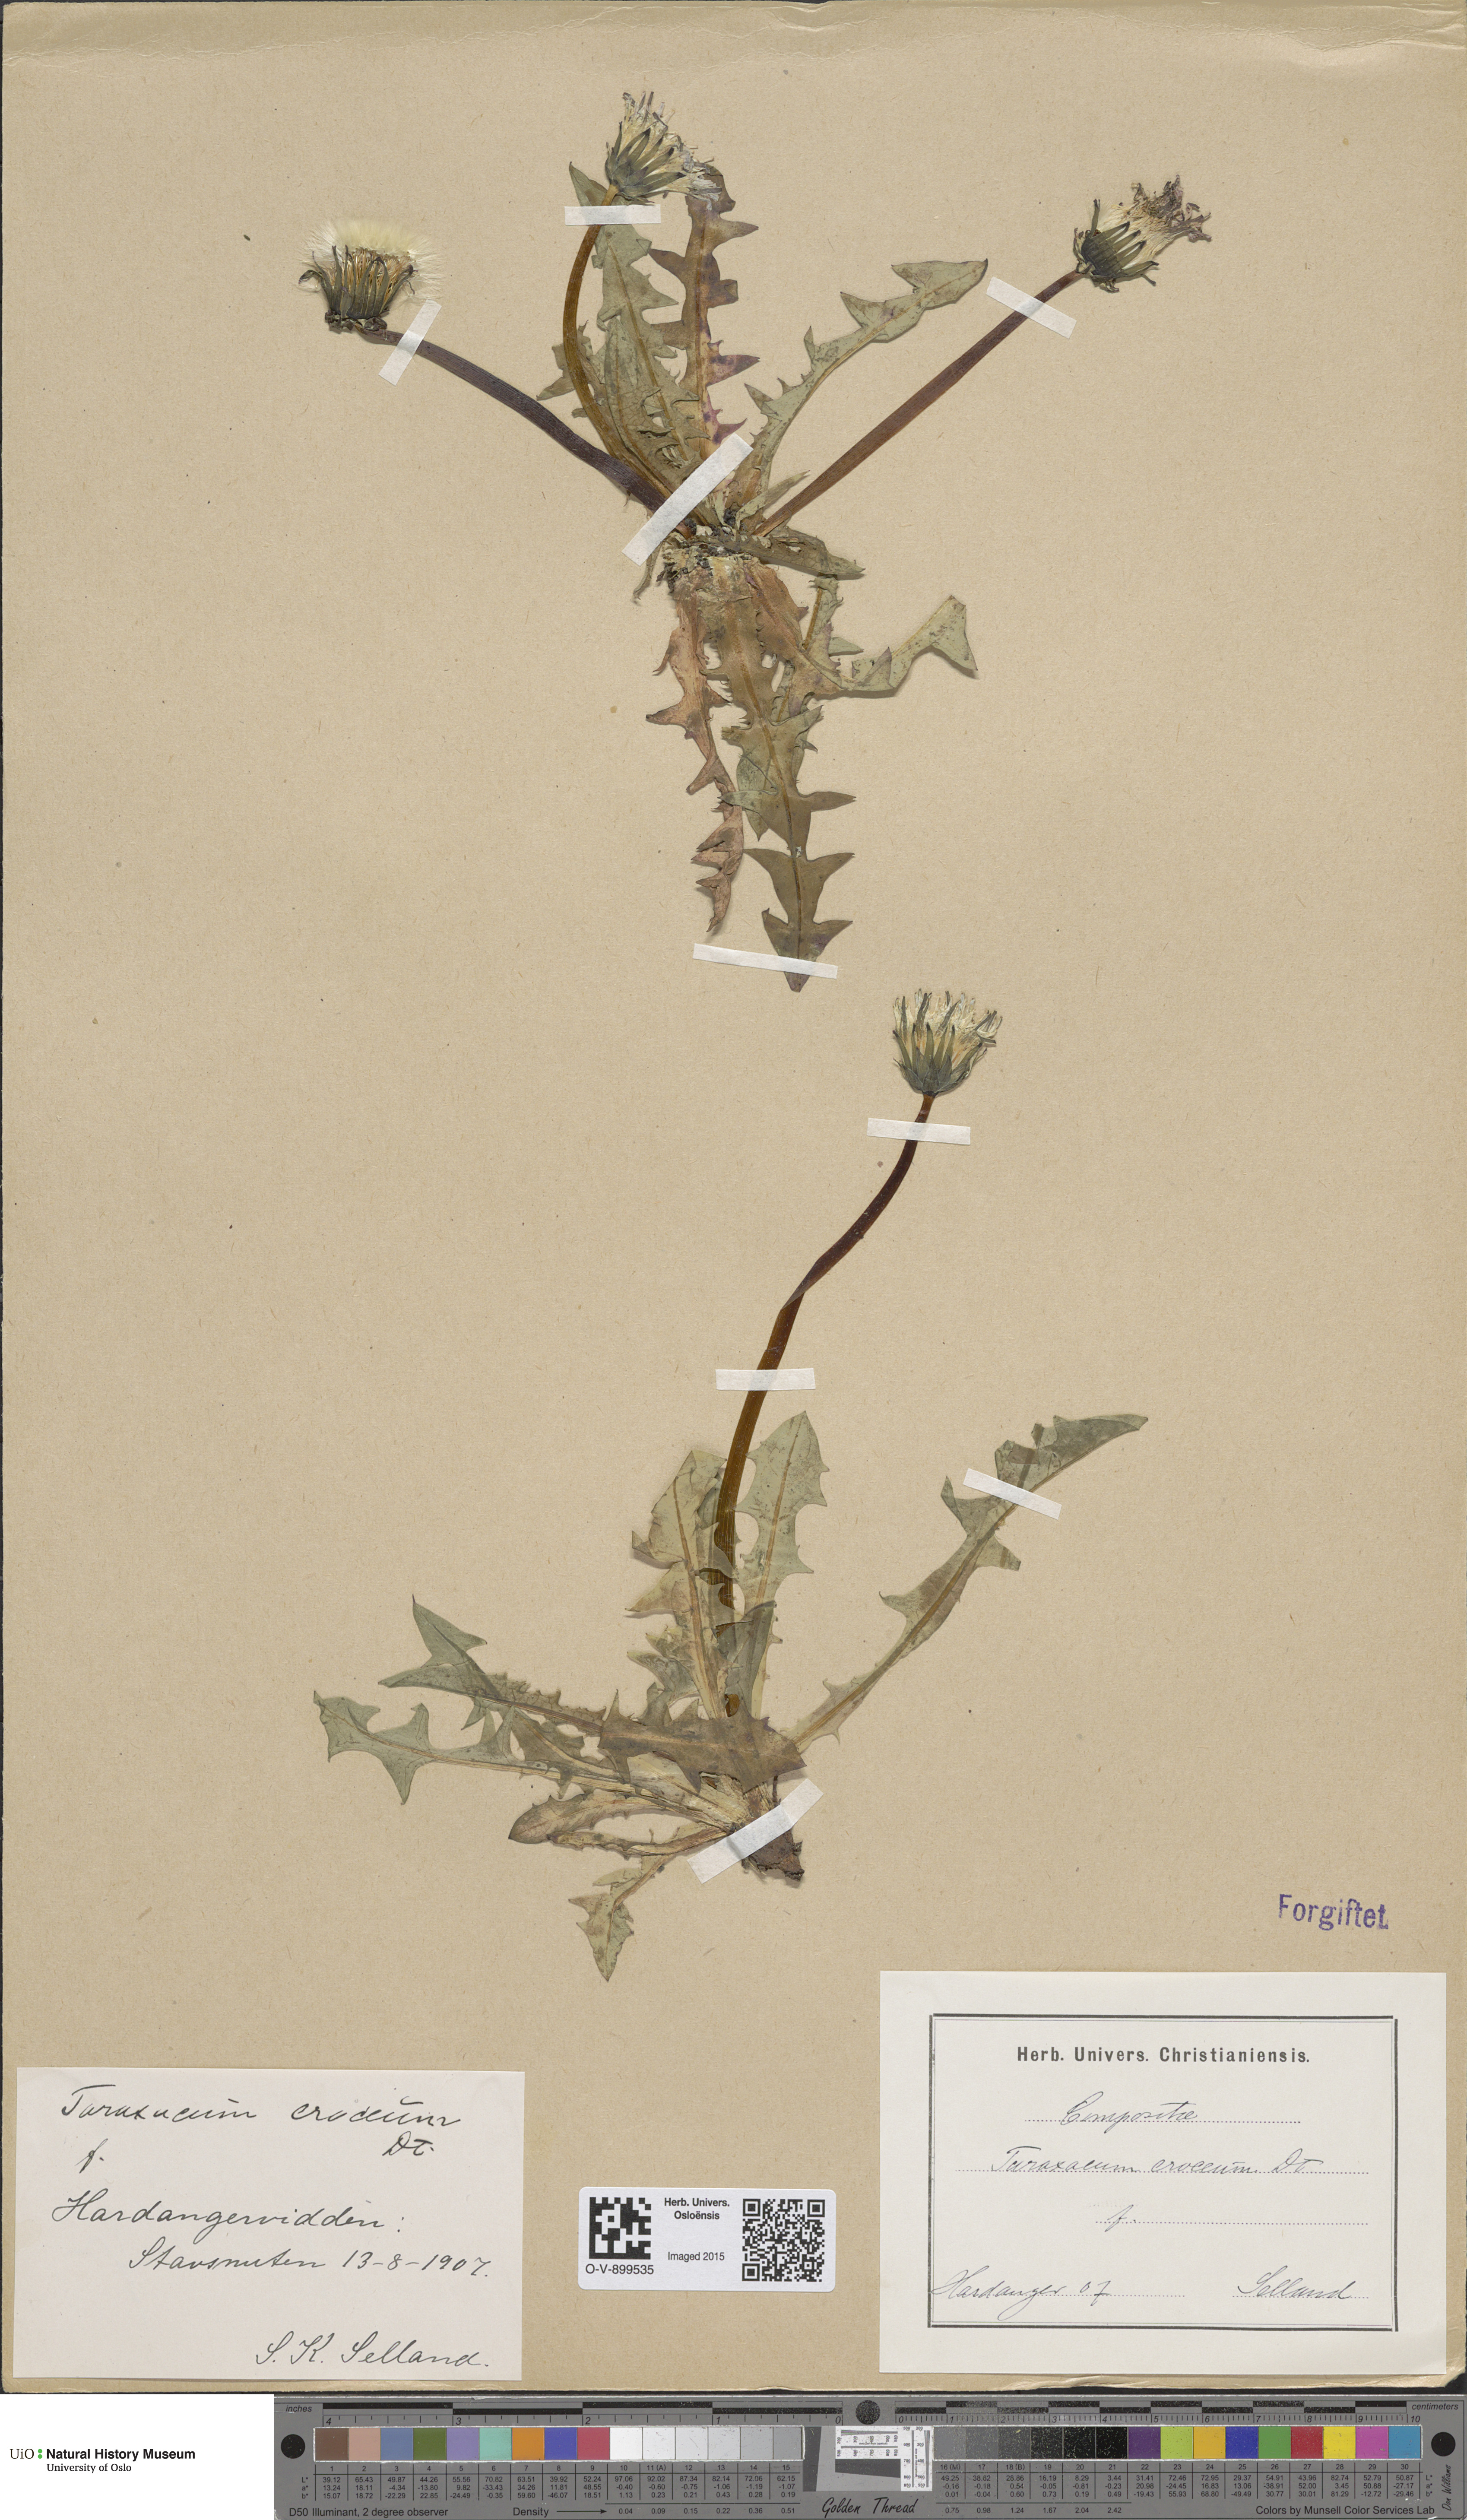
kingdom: Plantae
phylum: Tracheophyta
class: Magnoliopsida
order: Asterales
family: Asteraceae
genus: Taraxacum
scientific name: Taraxacum croceum
